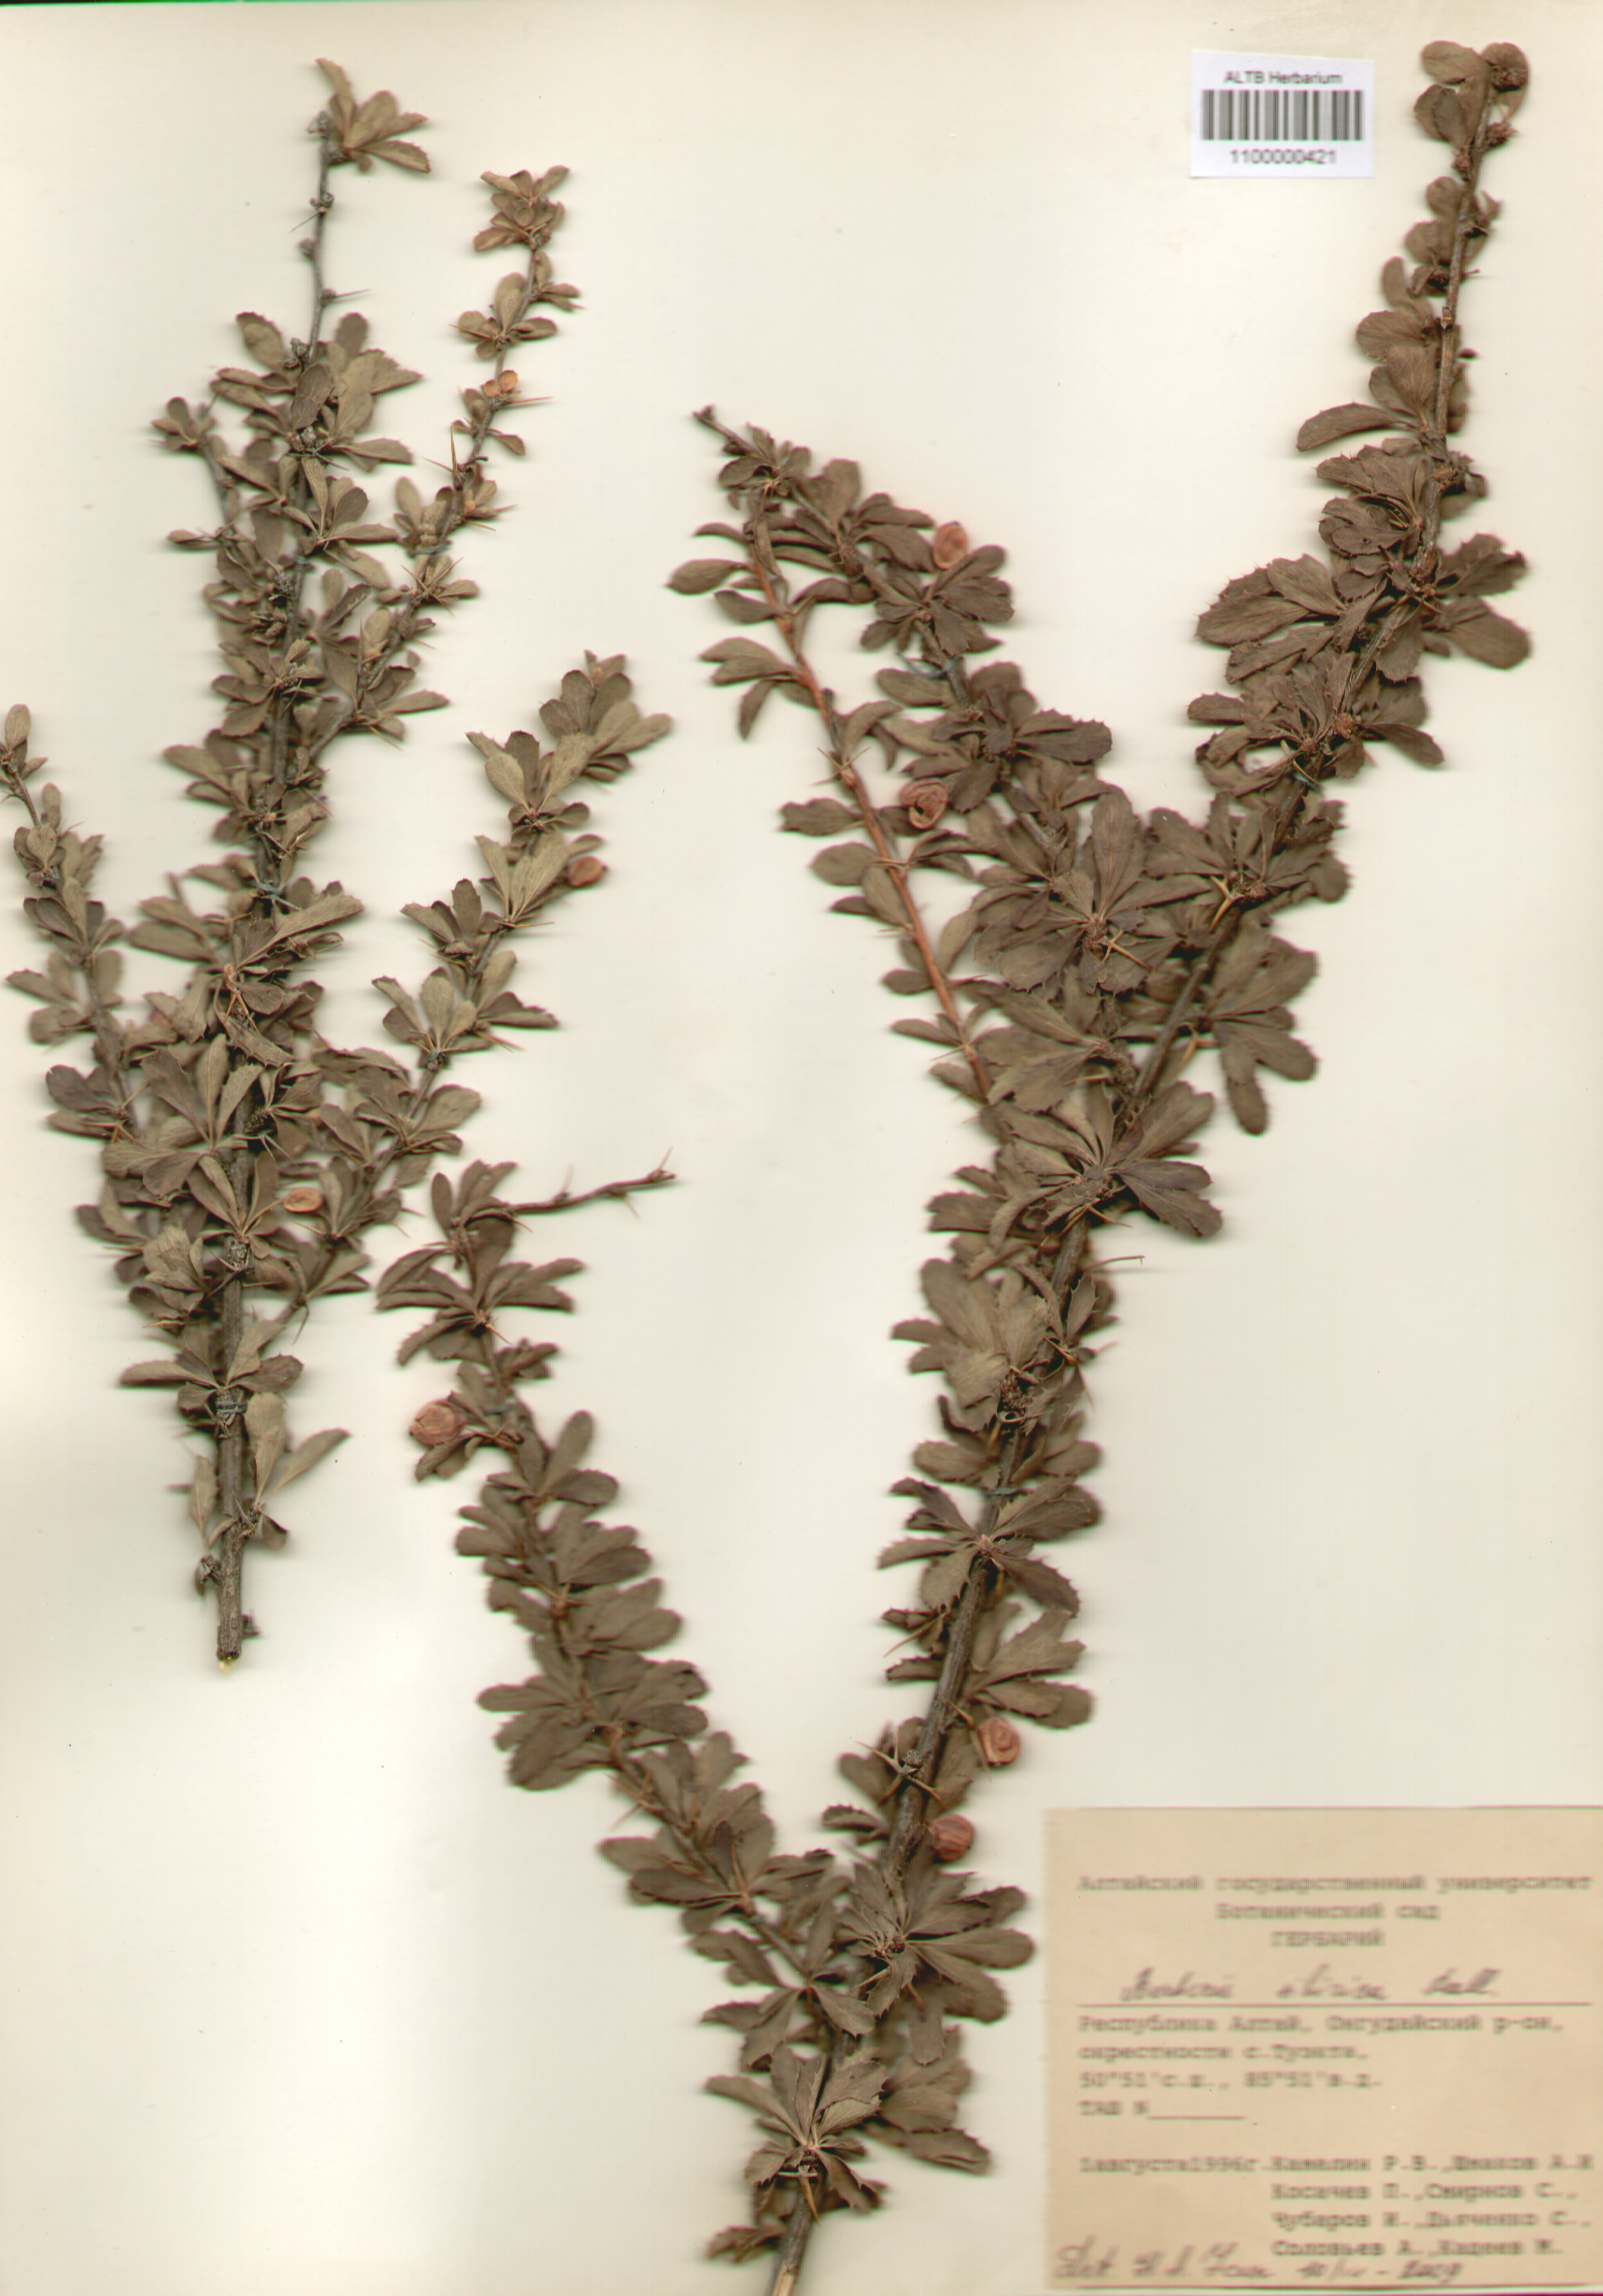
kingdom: Plantae
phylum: Tracheophyta
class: Magnoliopsida
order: Ranunculales
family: Berberidaceae
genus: Berberis
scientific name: Berberis sibirica
